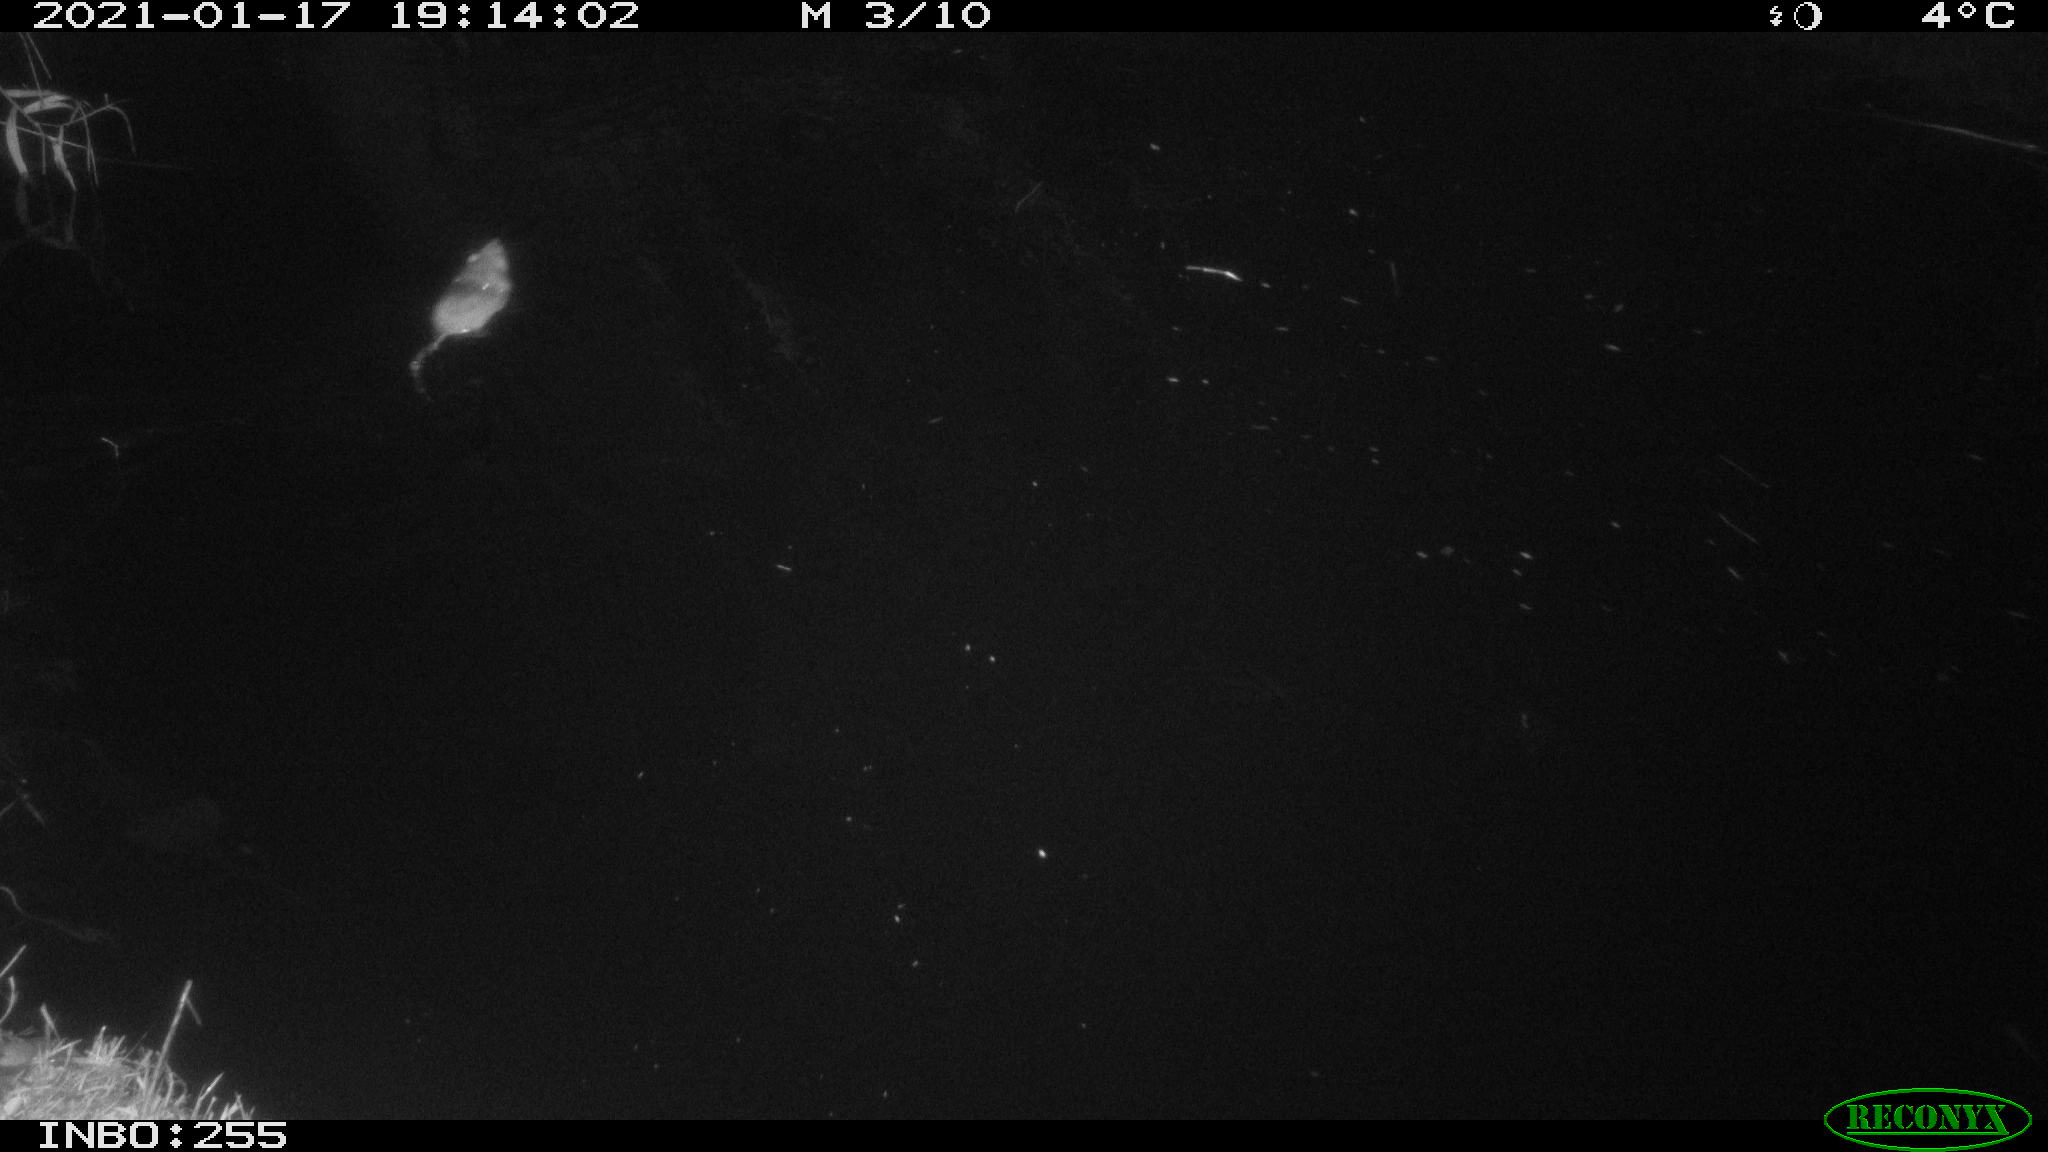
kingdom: Animalia
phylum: Chordata
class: Mammalia
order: Rodentia
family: Muridae
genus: Rattus
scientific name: Rattus norvegicus
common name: Brown rat
